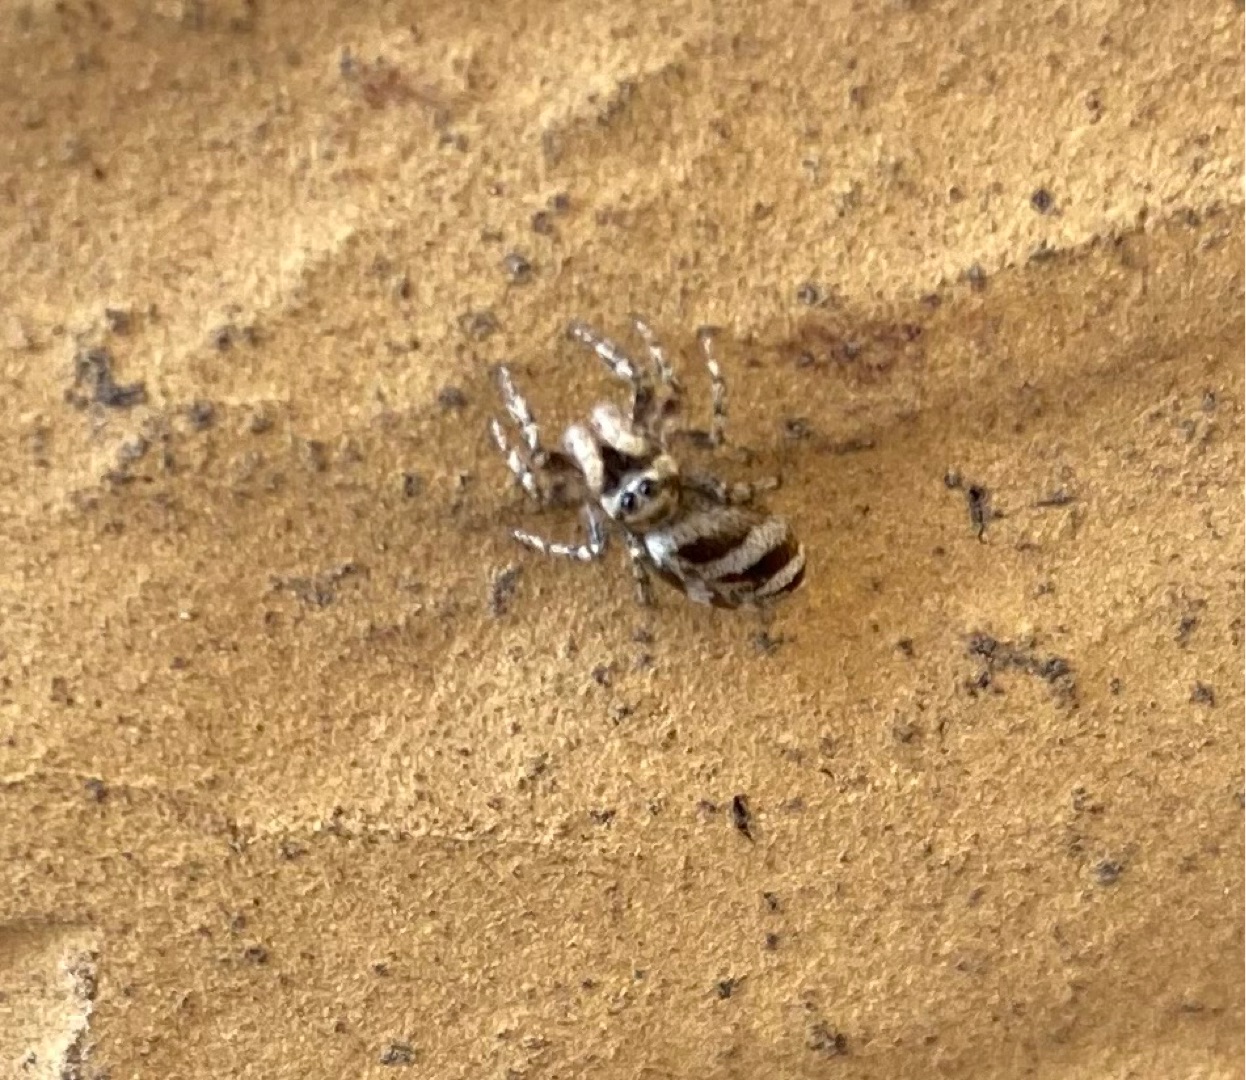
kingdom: Animalia
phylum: Arthropoda
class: Arachnida
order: Araneae
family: Salticidae
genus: Salticus
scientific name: Salticus scenicus
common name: Almindelig zebraedderkop
